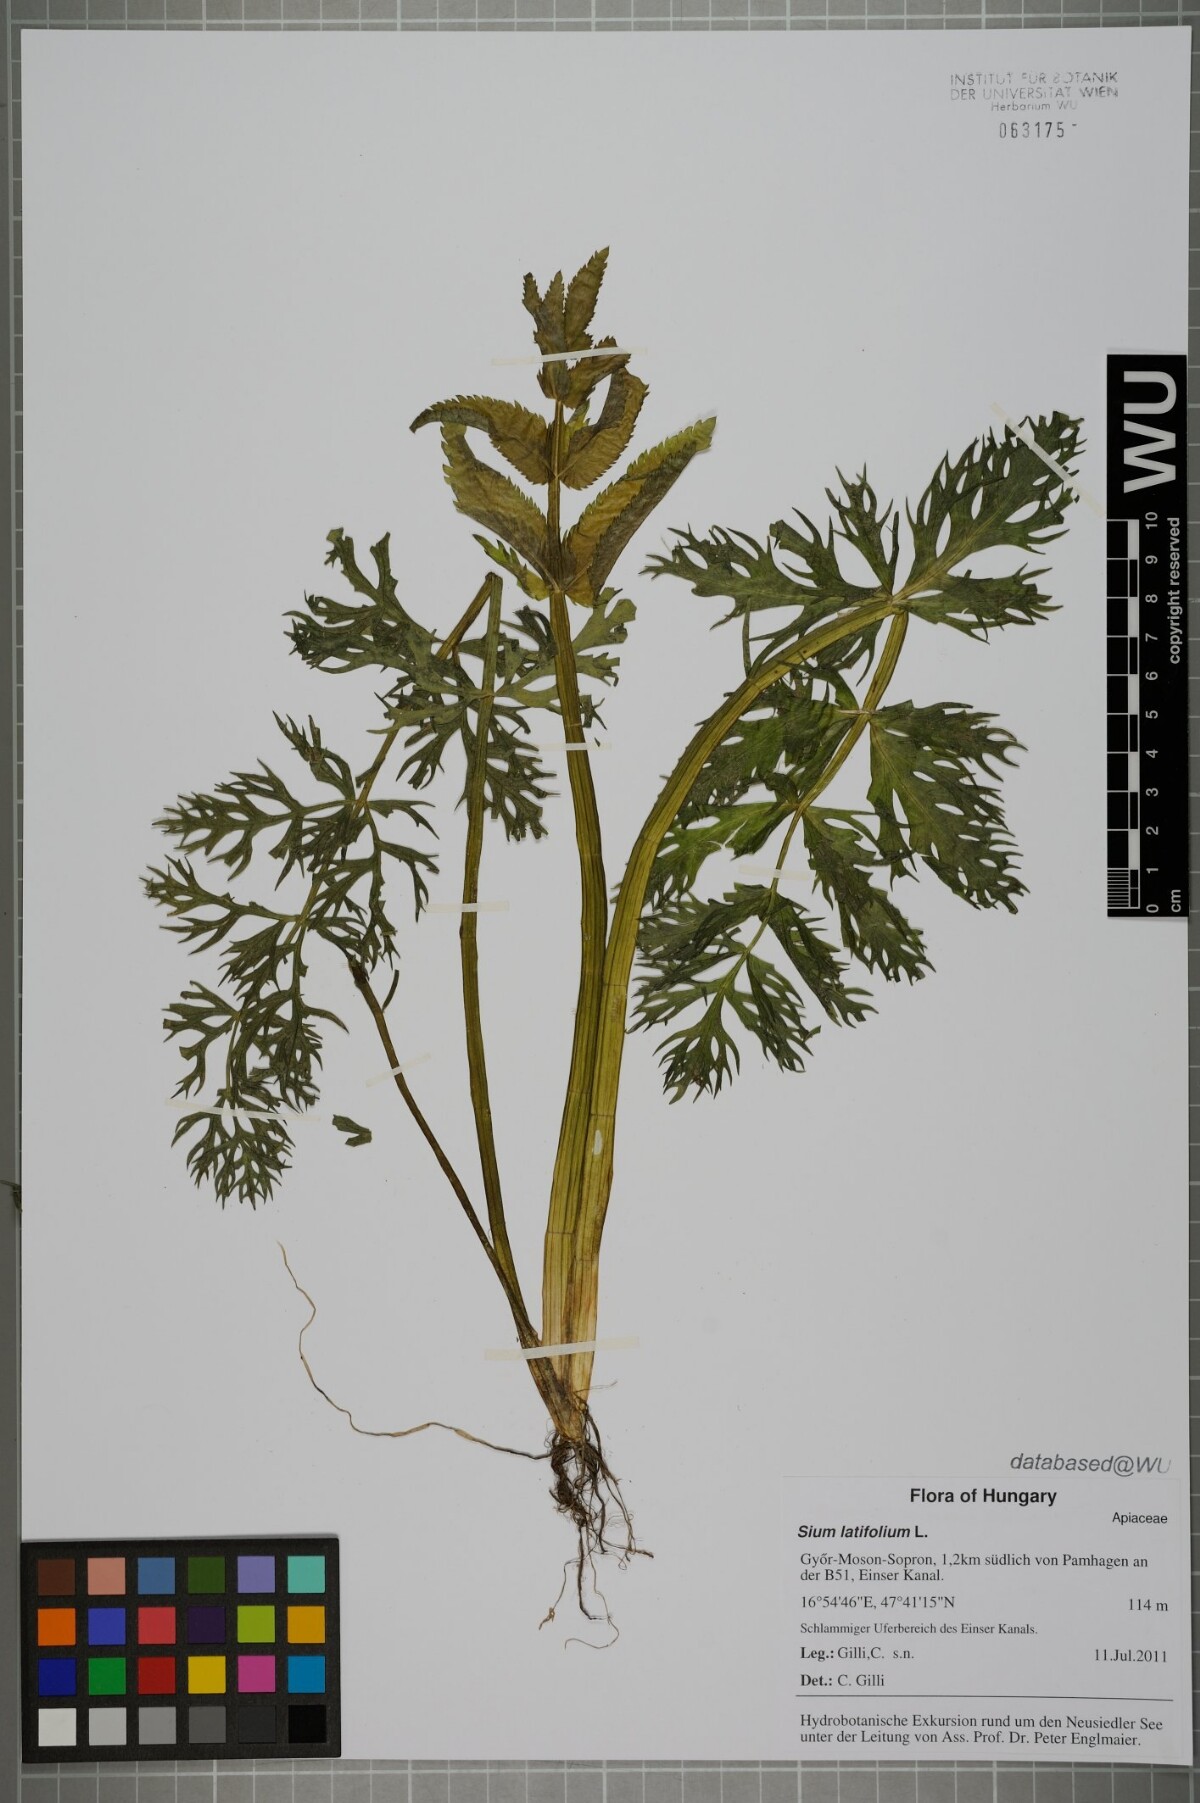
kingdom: Plantae
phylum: Tracheophyta
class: Magnoliopsida
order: Apiales
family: Apiaceae
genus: Sium
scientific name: Sium latifolium
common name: Greater water-parsnip
